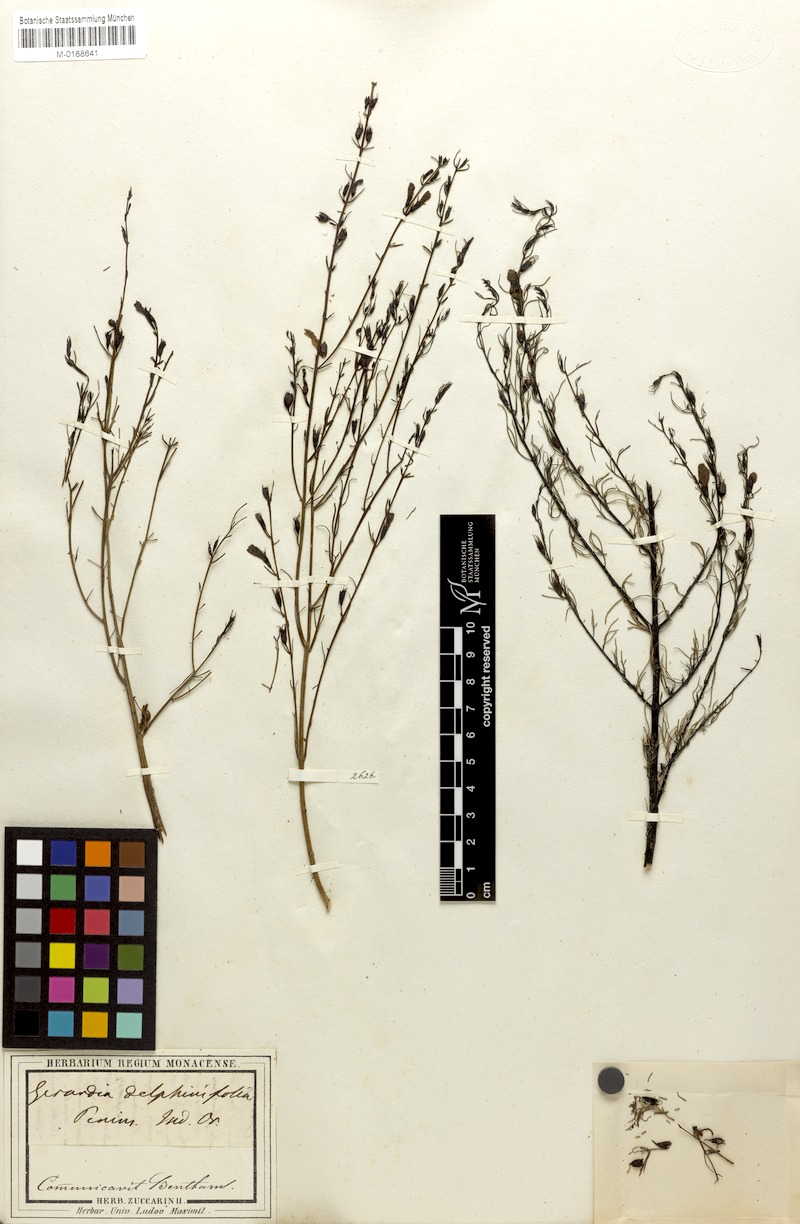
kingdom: Plantae
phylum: Tracheophyta
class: Magnoliopsida
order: Lamiales
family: Orobanchaceae
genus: Parasopubia
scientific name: Parasopubia delphiniifolia
